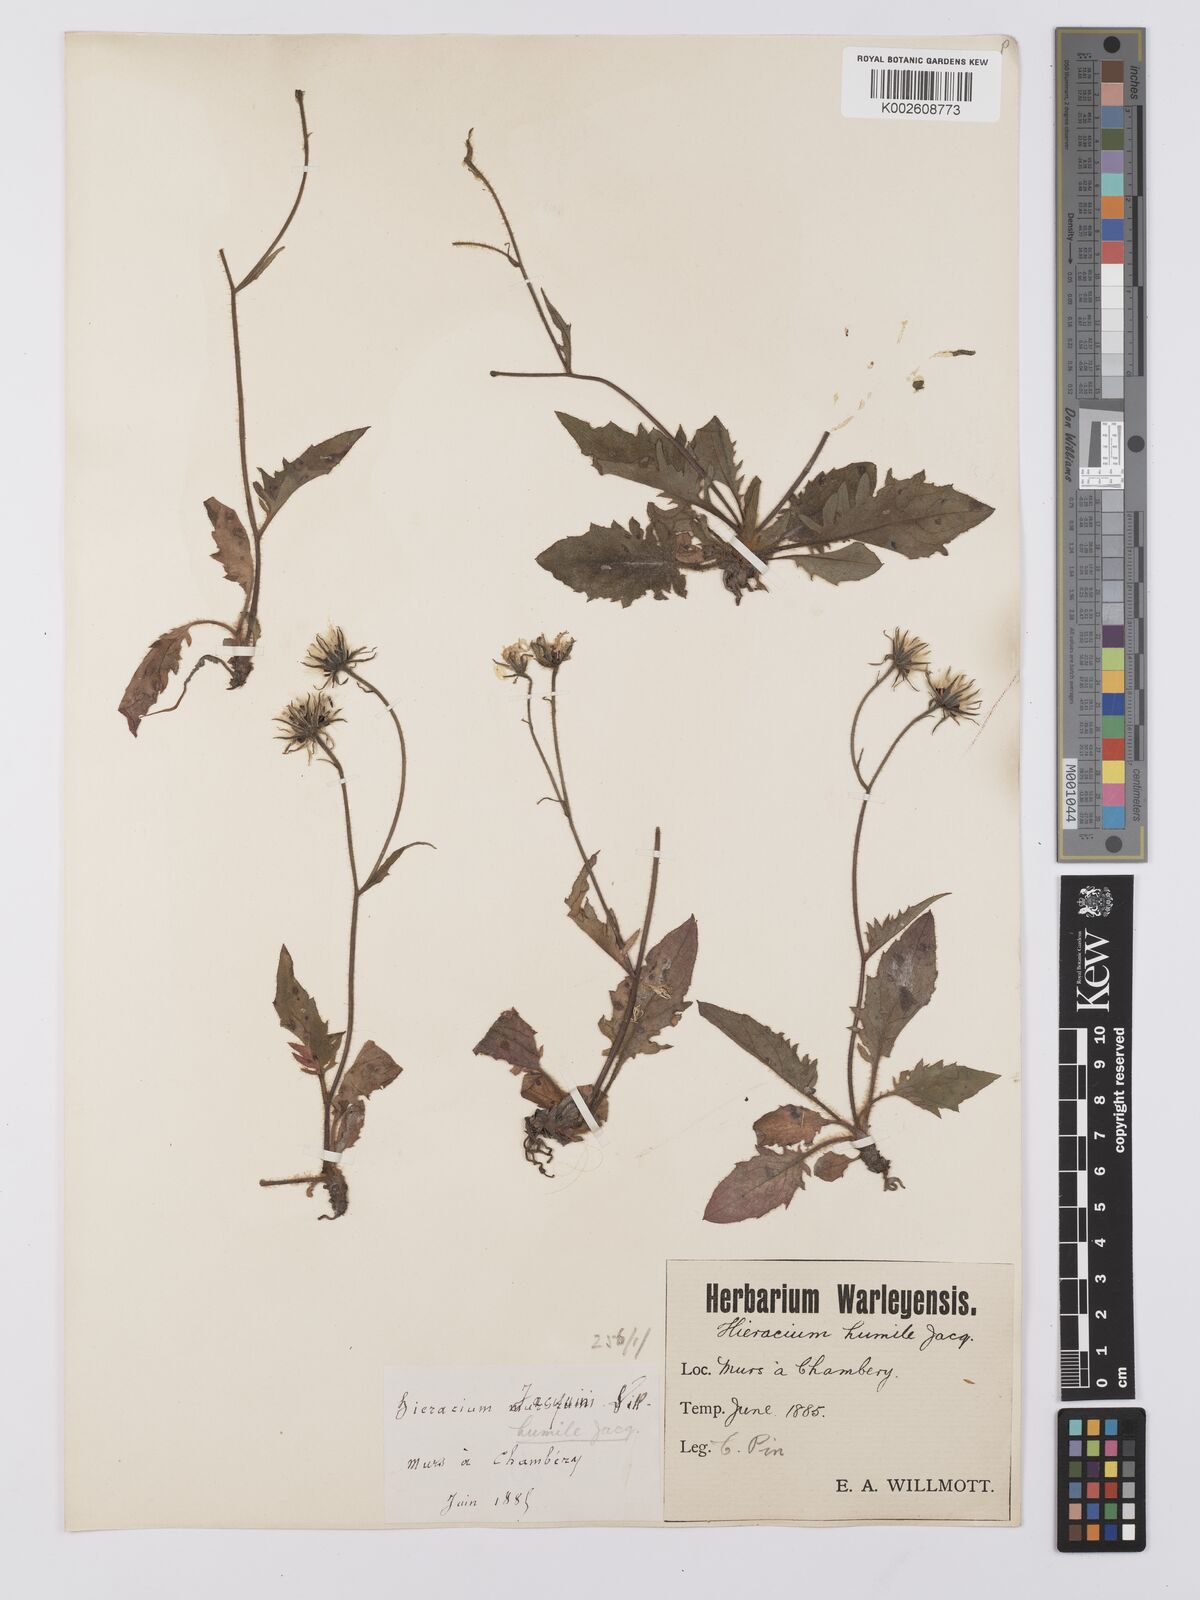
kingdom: Plantae
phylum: Tracheophyta
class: Magnoliopsida
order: Asterales
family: Asteraceae
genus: Hieracium
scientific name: Hieracium humile
